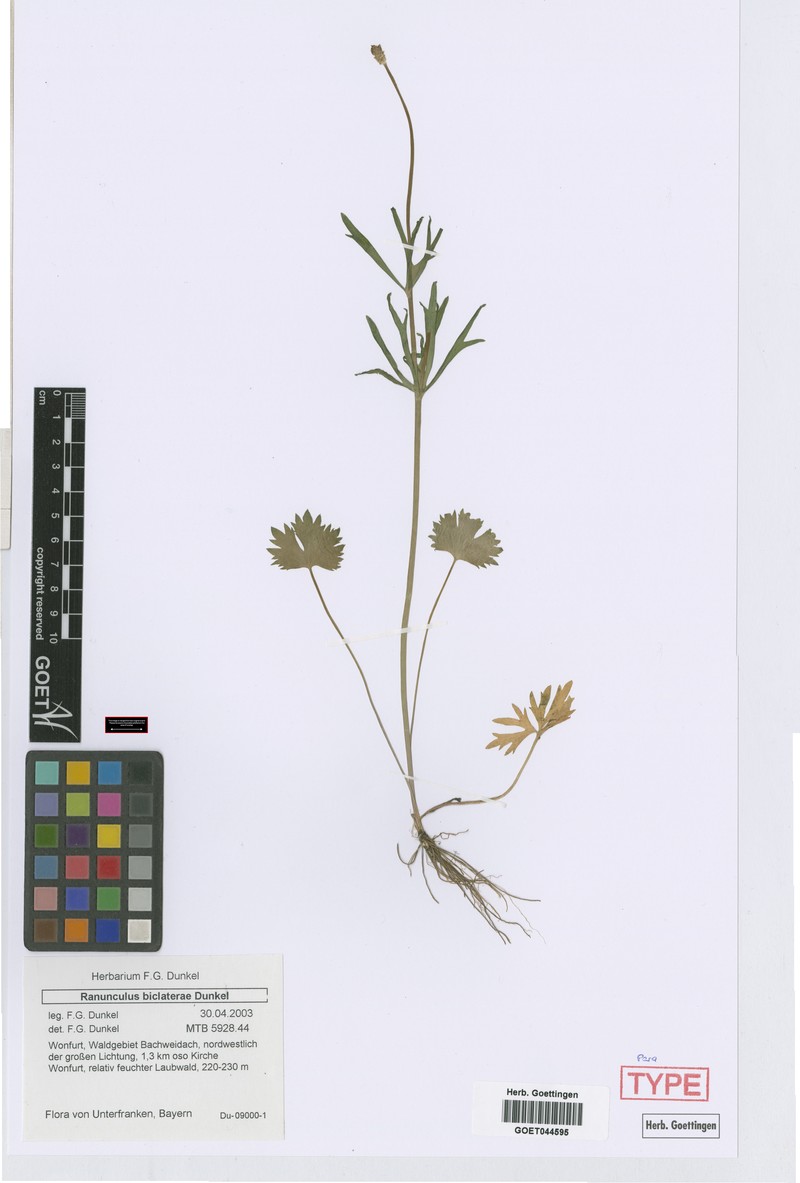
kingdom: Plantae
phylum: Tracheophyta
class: Magnoliopsida
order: Ranunculales
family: Ranunculaceae
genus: Ranunculus
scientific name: Ranunculus biclaterae
